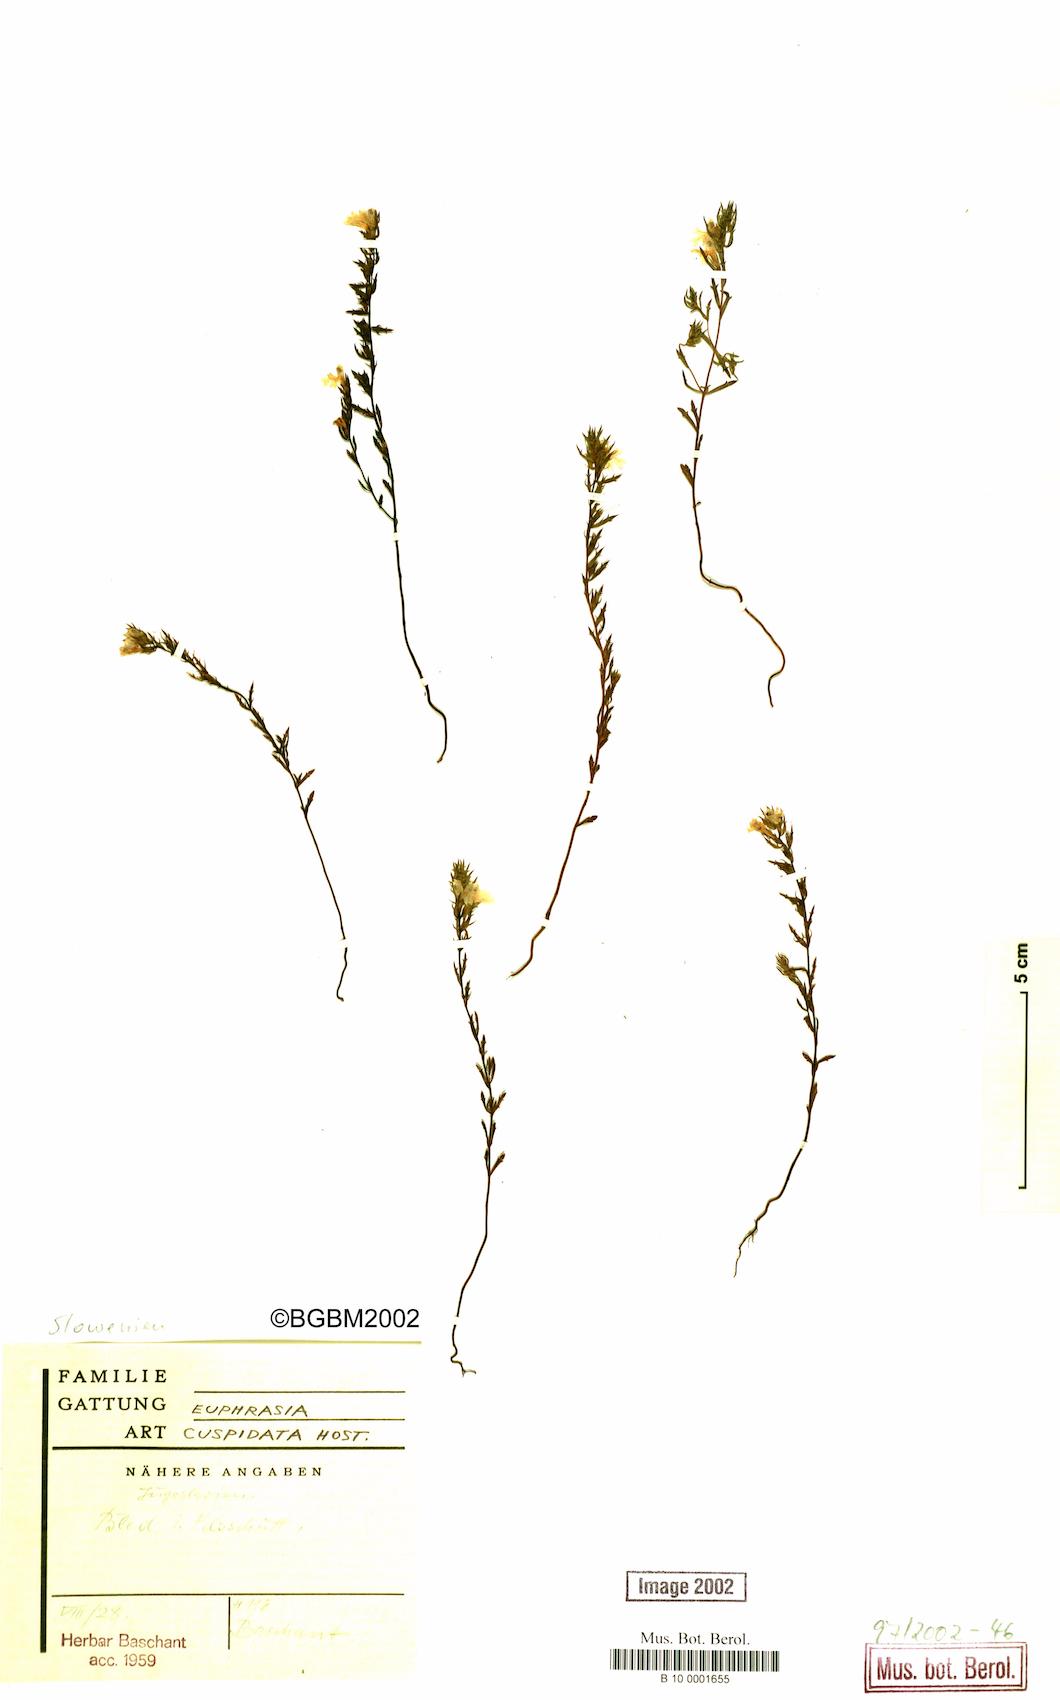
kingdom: Plantae
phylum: Tracheophyta
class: Magnoliopsida
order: Lamiales
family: Orobanchaceae
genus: Euphrasia
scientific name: Euphrasia cuspidata
